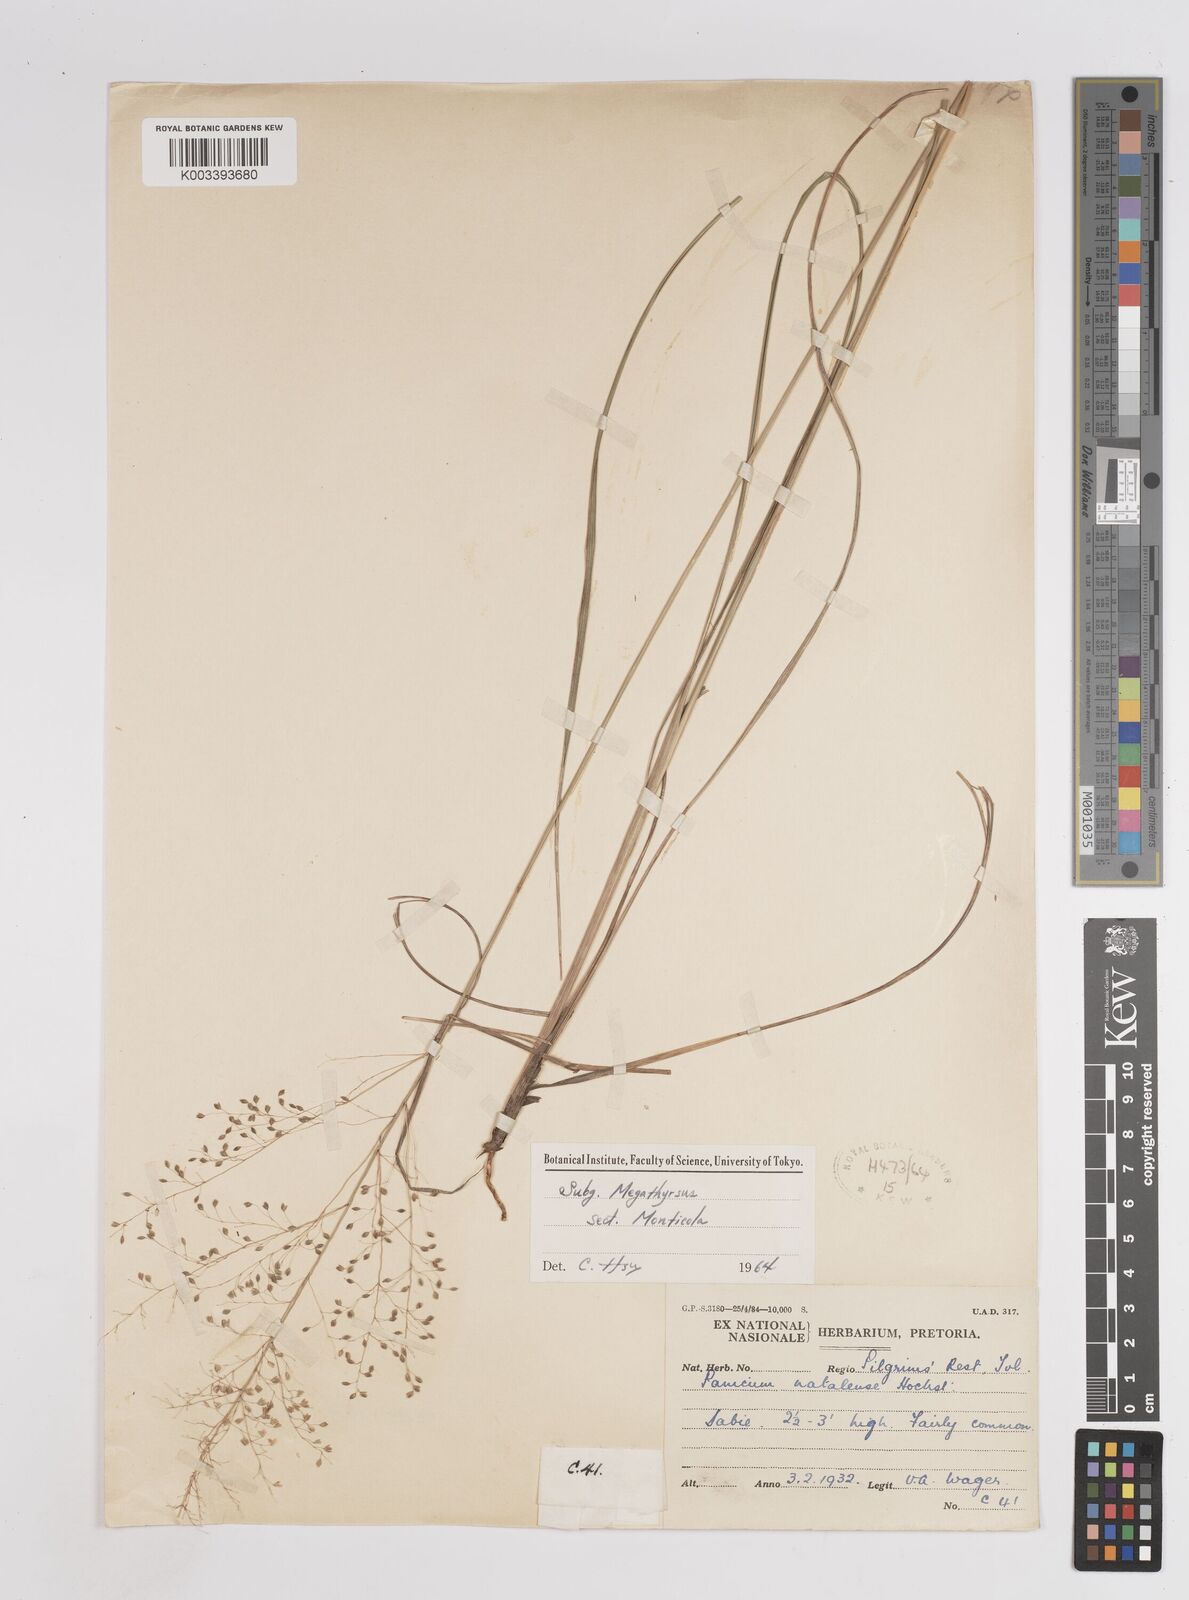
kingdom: Plantae
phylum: Tracheophyta
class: Liliopsida
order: Poales
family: Poaceae
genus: Trichanthecium
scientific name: Trichanthecium natalense
